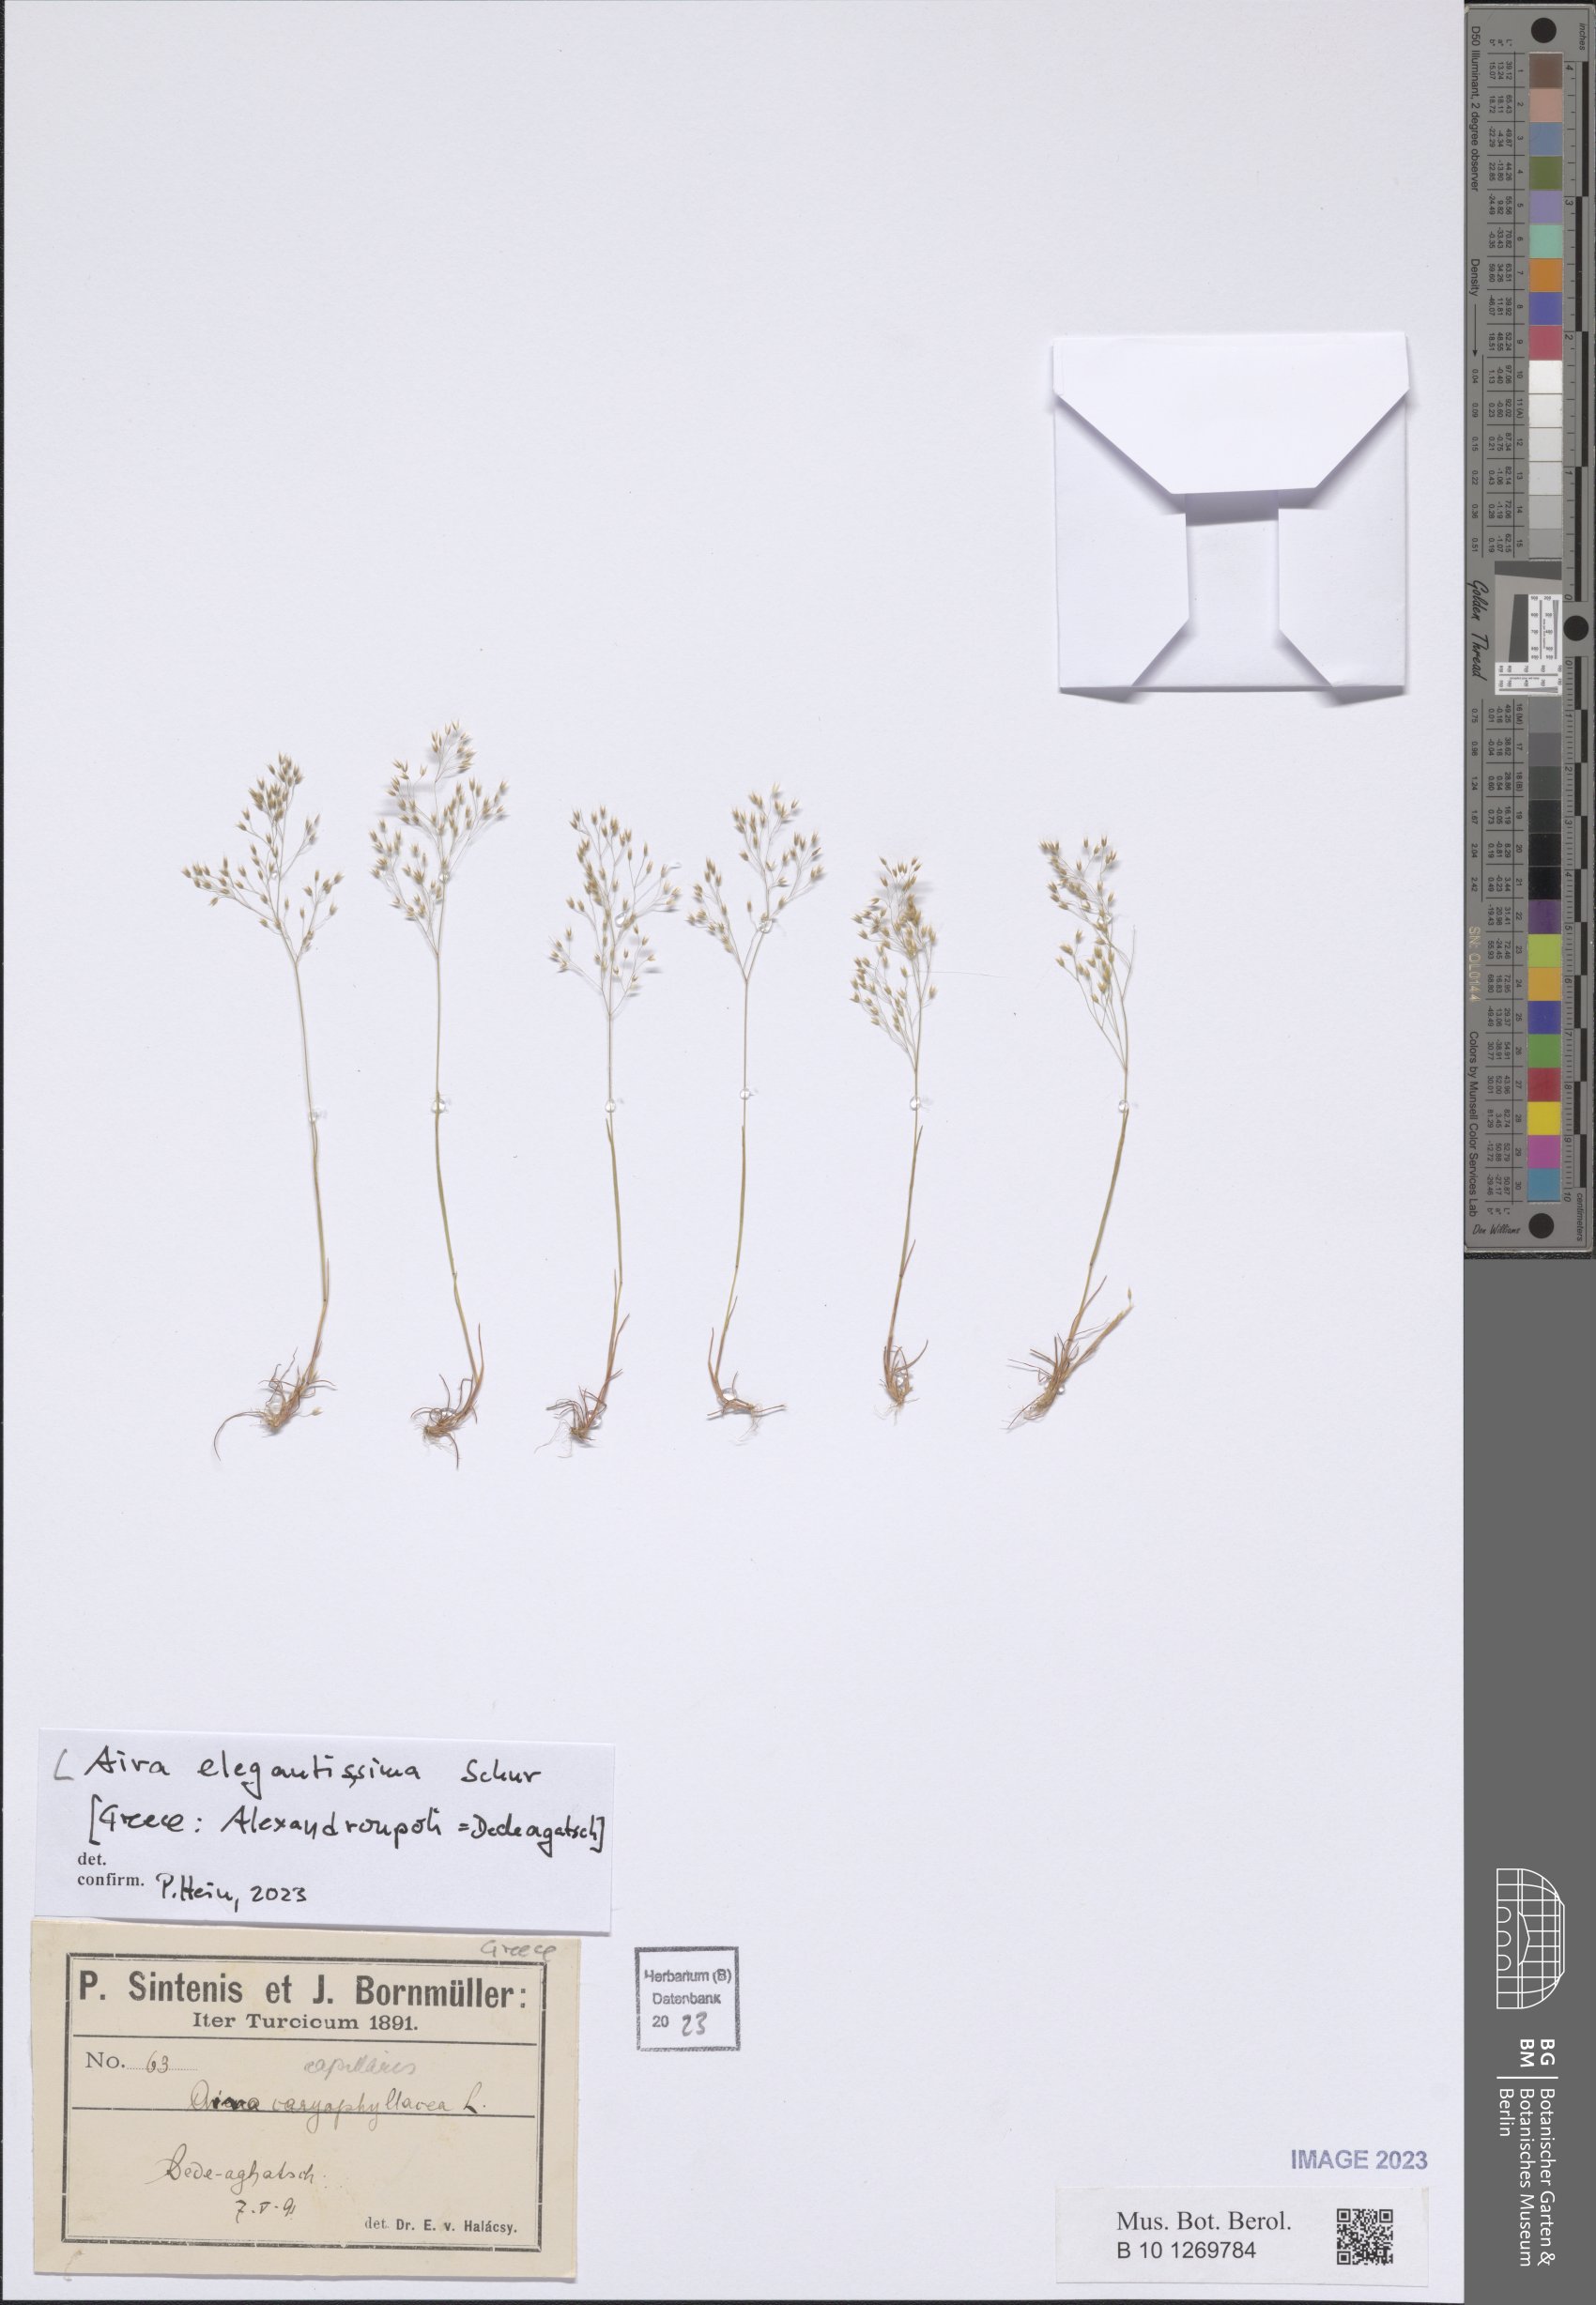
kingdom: Plantae
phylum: Tracheophyta
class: Liliopsida
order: Poales
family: Poaceae
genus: Aira
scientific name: Aira elegans
